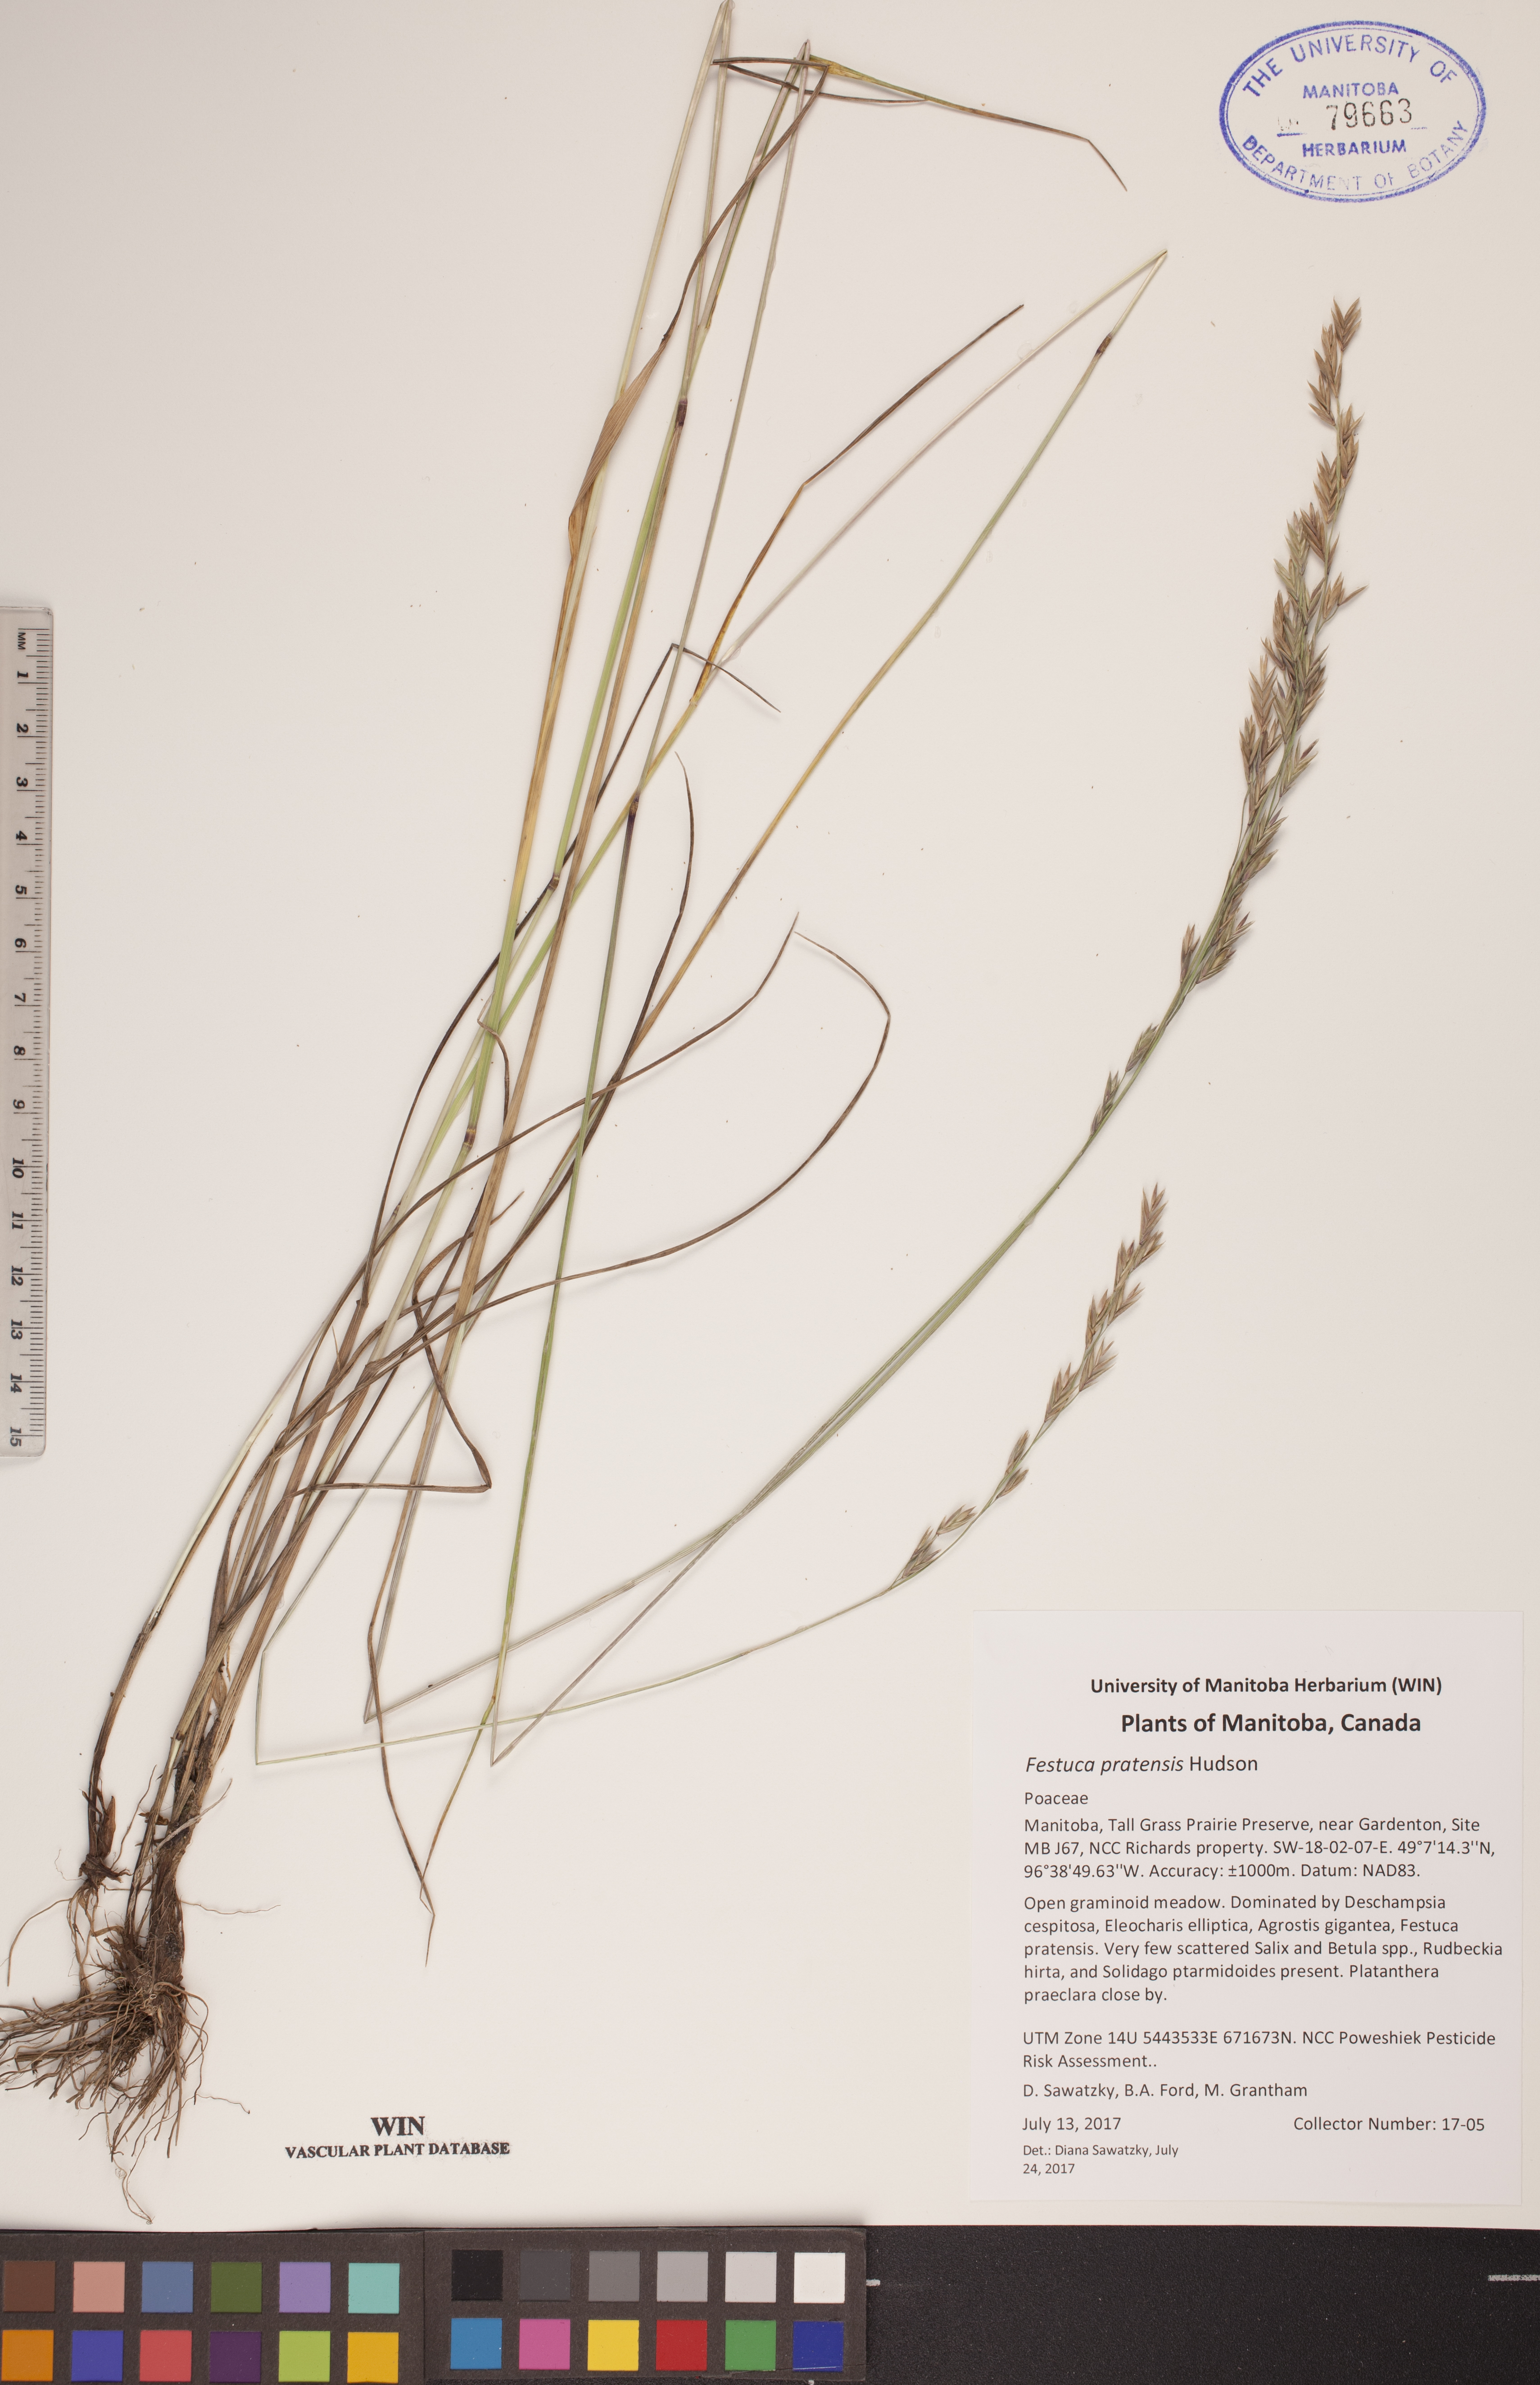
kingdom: Plantae
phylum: Tracheophyta
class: Liliopsida
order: Poales
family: Poaceae
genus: Lolium
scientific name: Lolium pratense
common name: Dover grass
